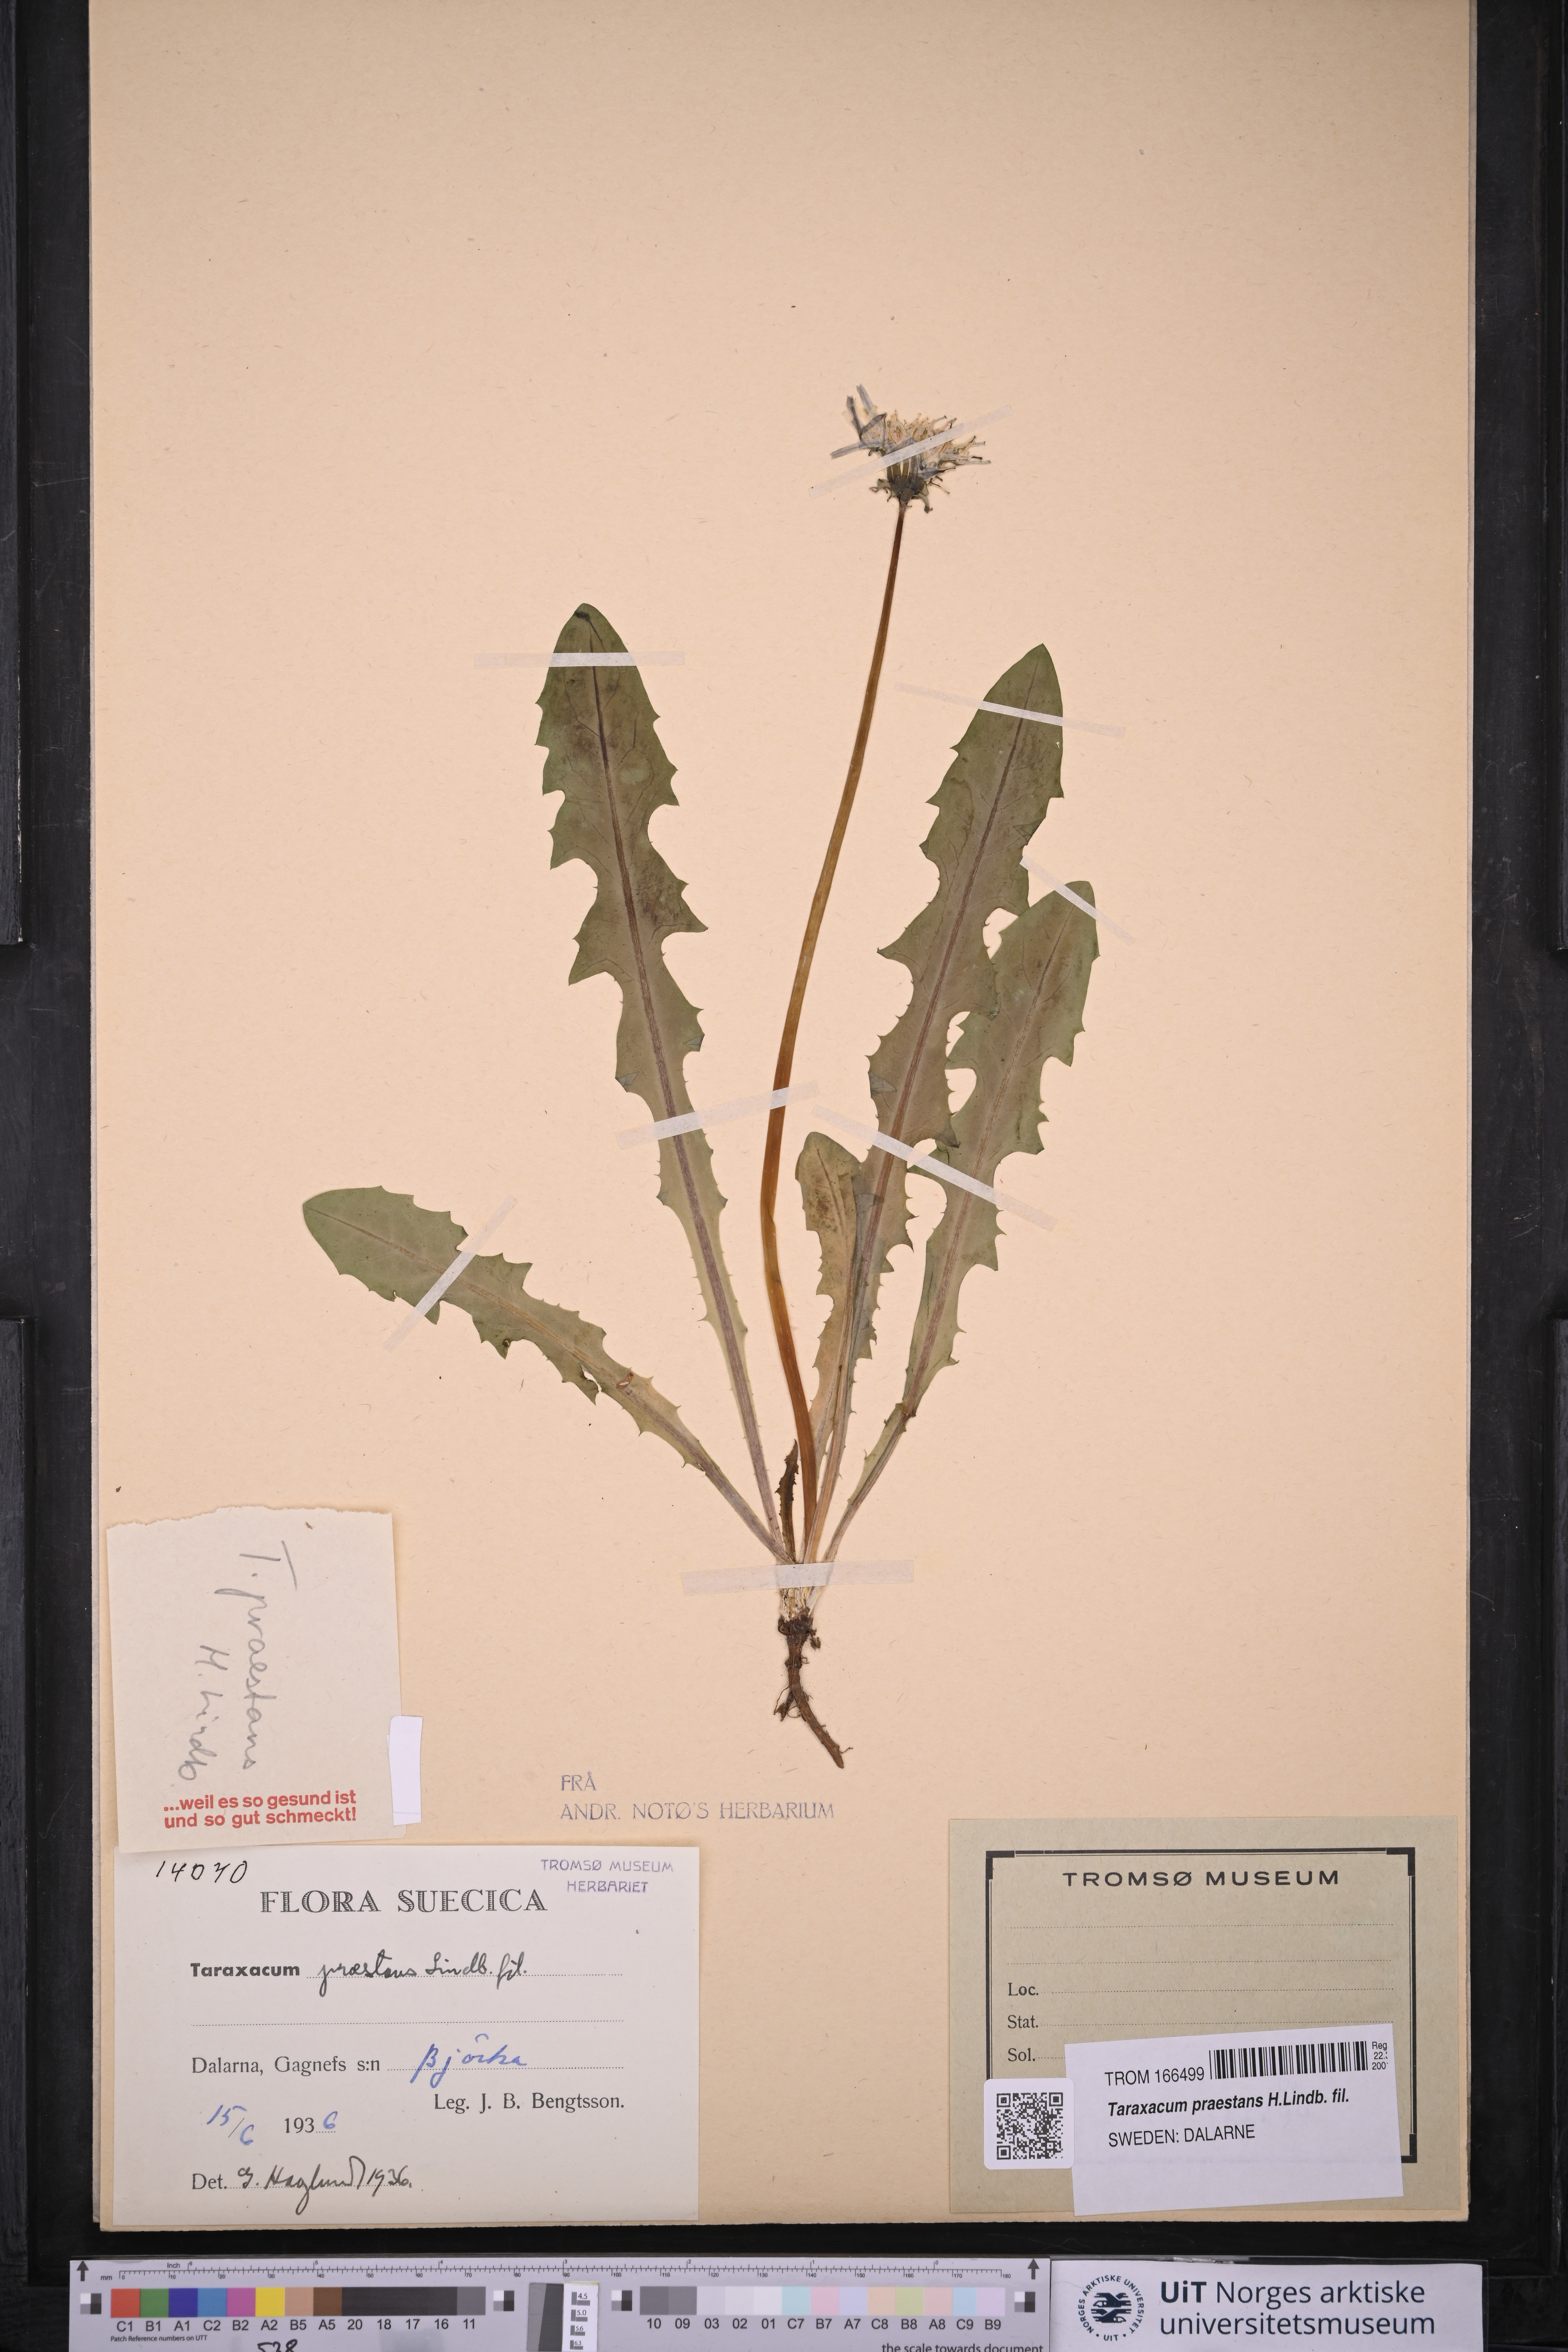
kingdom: Plantae
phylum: Tracheophyta
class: Magnoliopsida
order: Asterales
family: Asteraceae
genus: Taraxacum
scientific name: Taraxacum praestans
